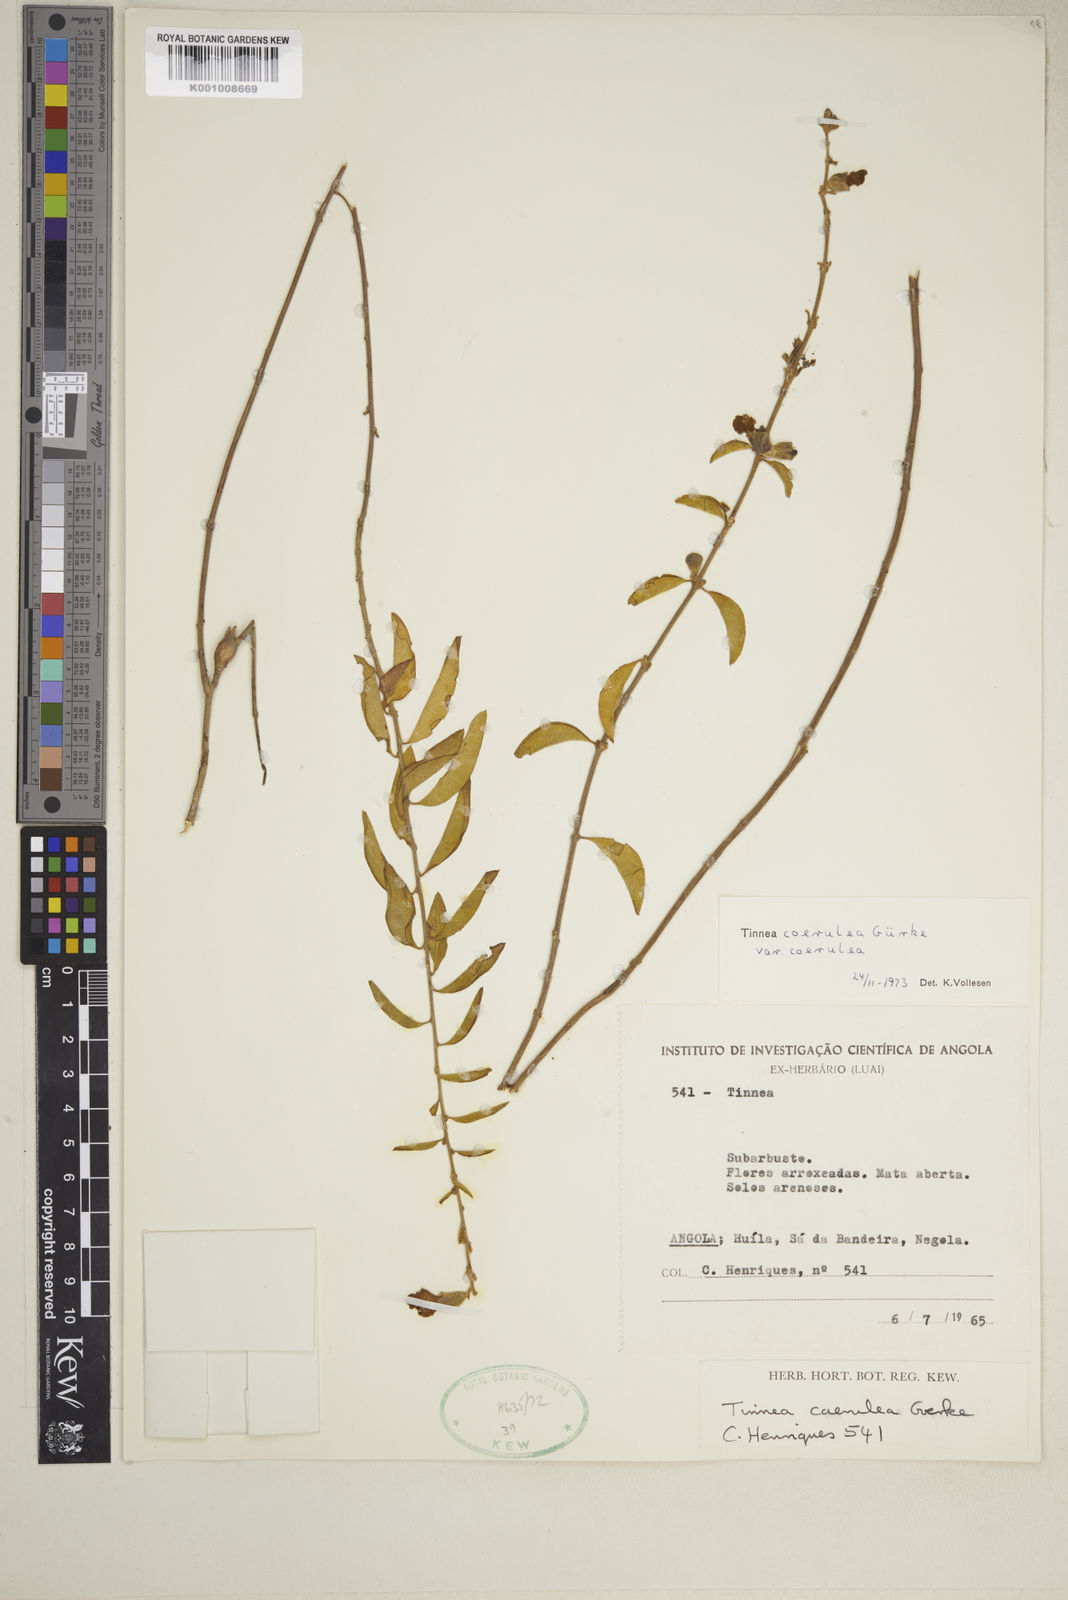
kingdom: Plantae
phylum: Tracheophyta
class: Magnoliopsida
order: Lamiales
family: Lamiaceae
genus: Tinnea
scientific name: Tinnea
